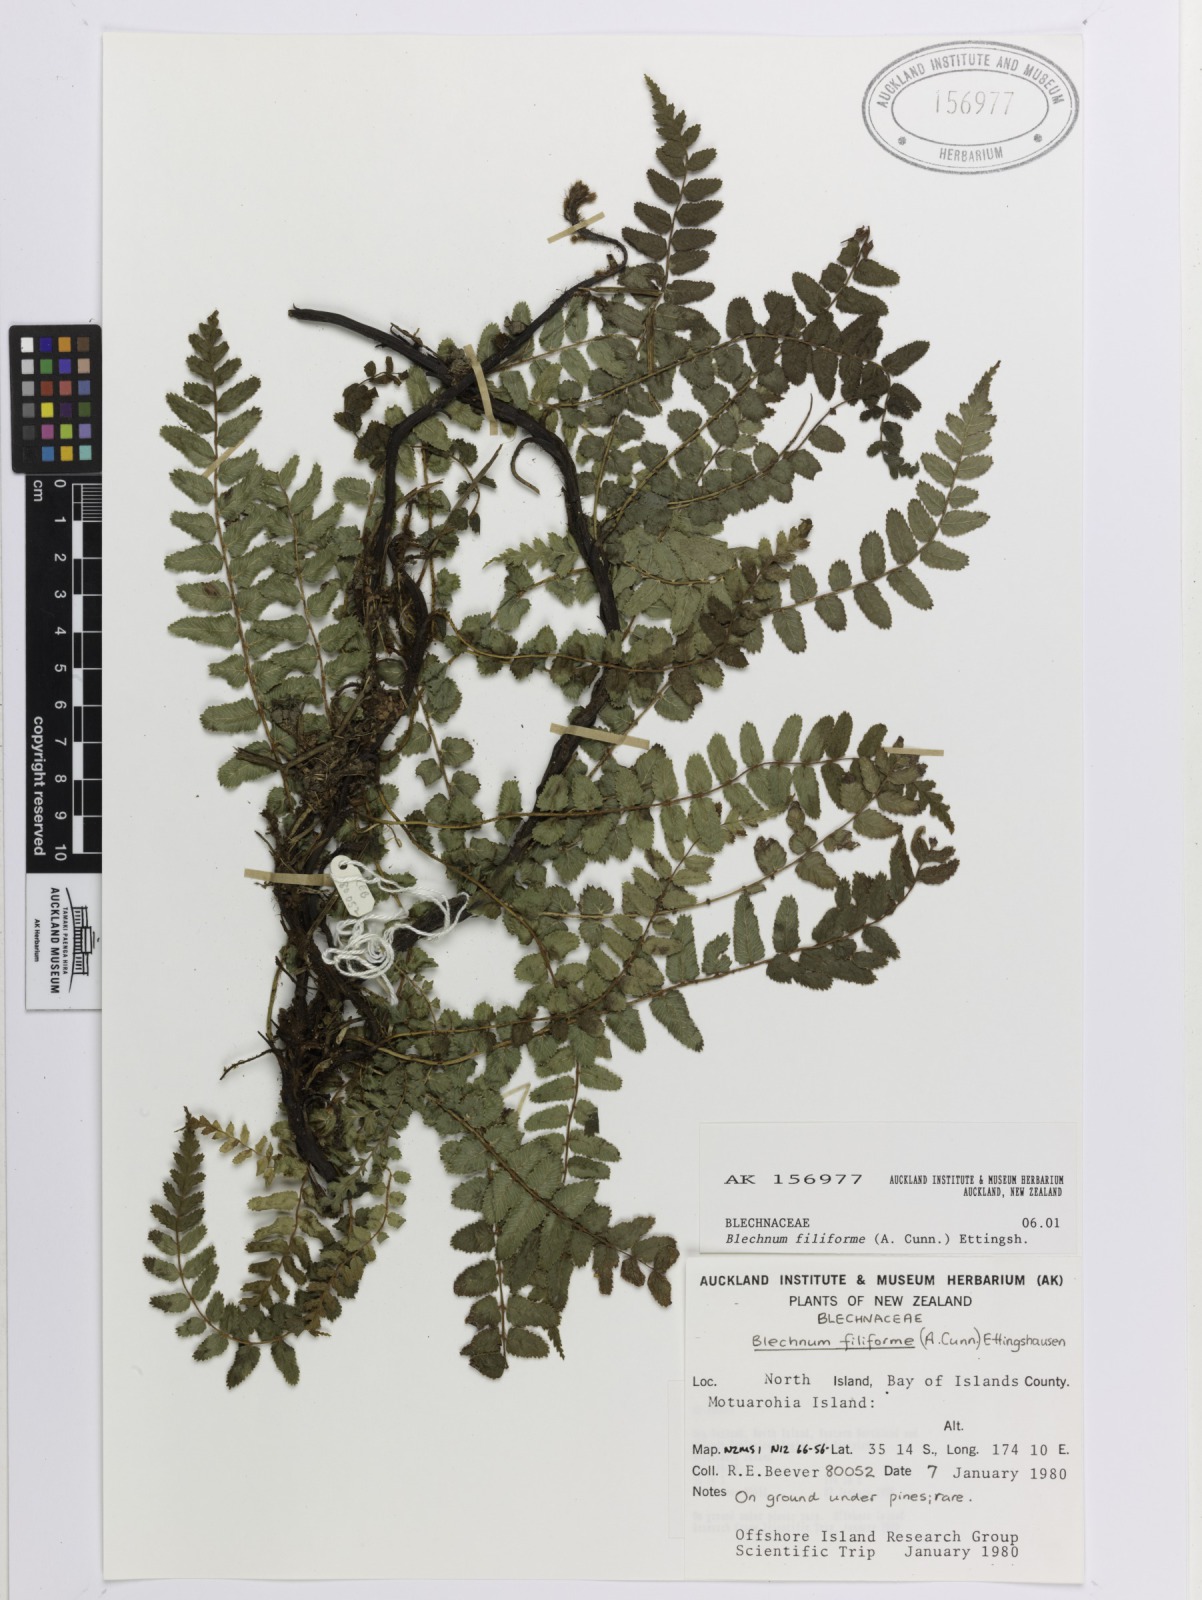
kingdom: Plantae
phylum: Tracheophyta
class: Polypodiopsida
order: Polypodiales
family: Blechnaceae
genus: Icarus
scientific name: Icarus filiformis
